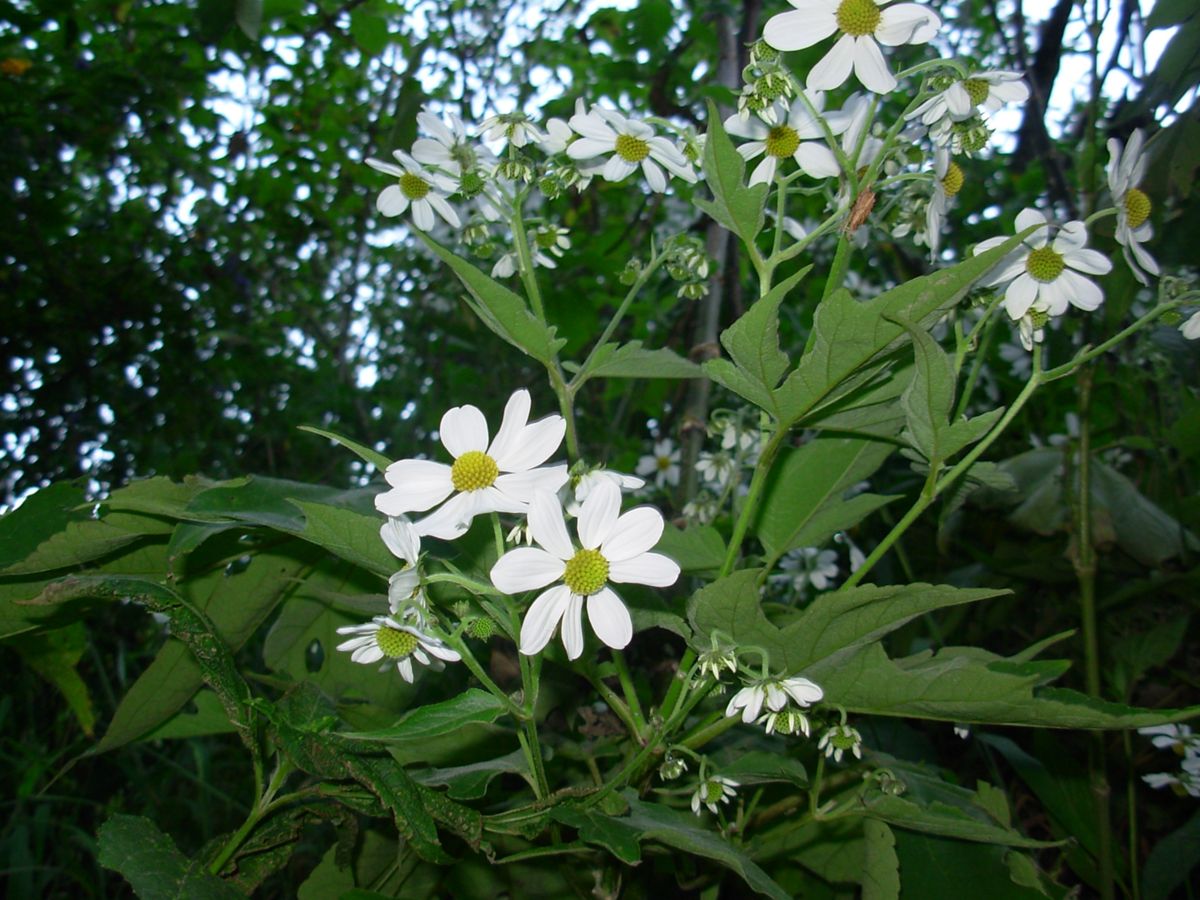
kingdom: Plantae
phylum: Tracheophyta
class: Magnoliopsida
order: Asterales
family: Asteraceae
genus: Montanoa
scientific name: Montanoa hibiscifolia
